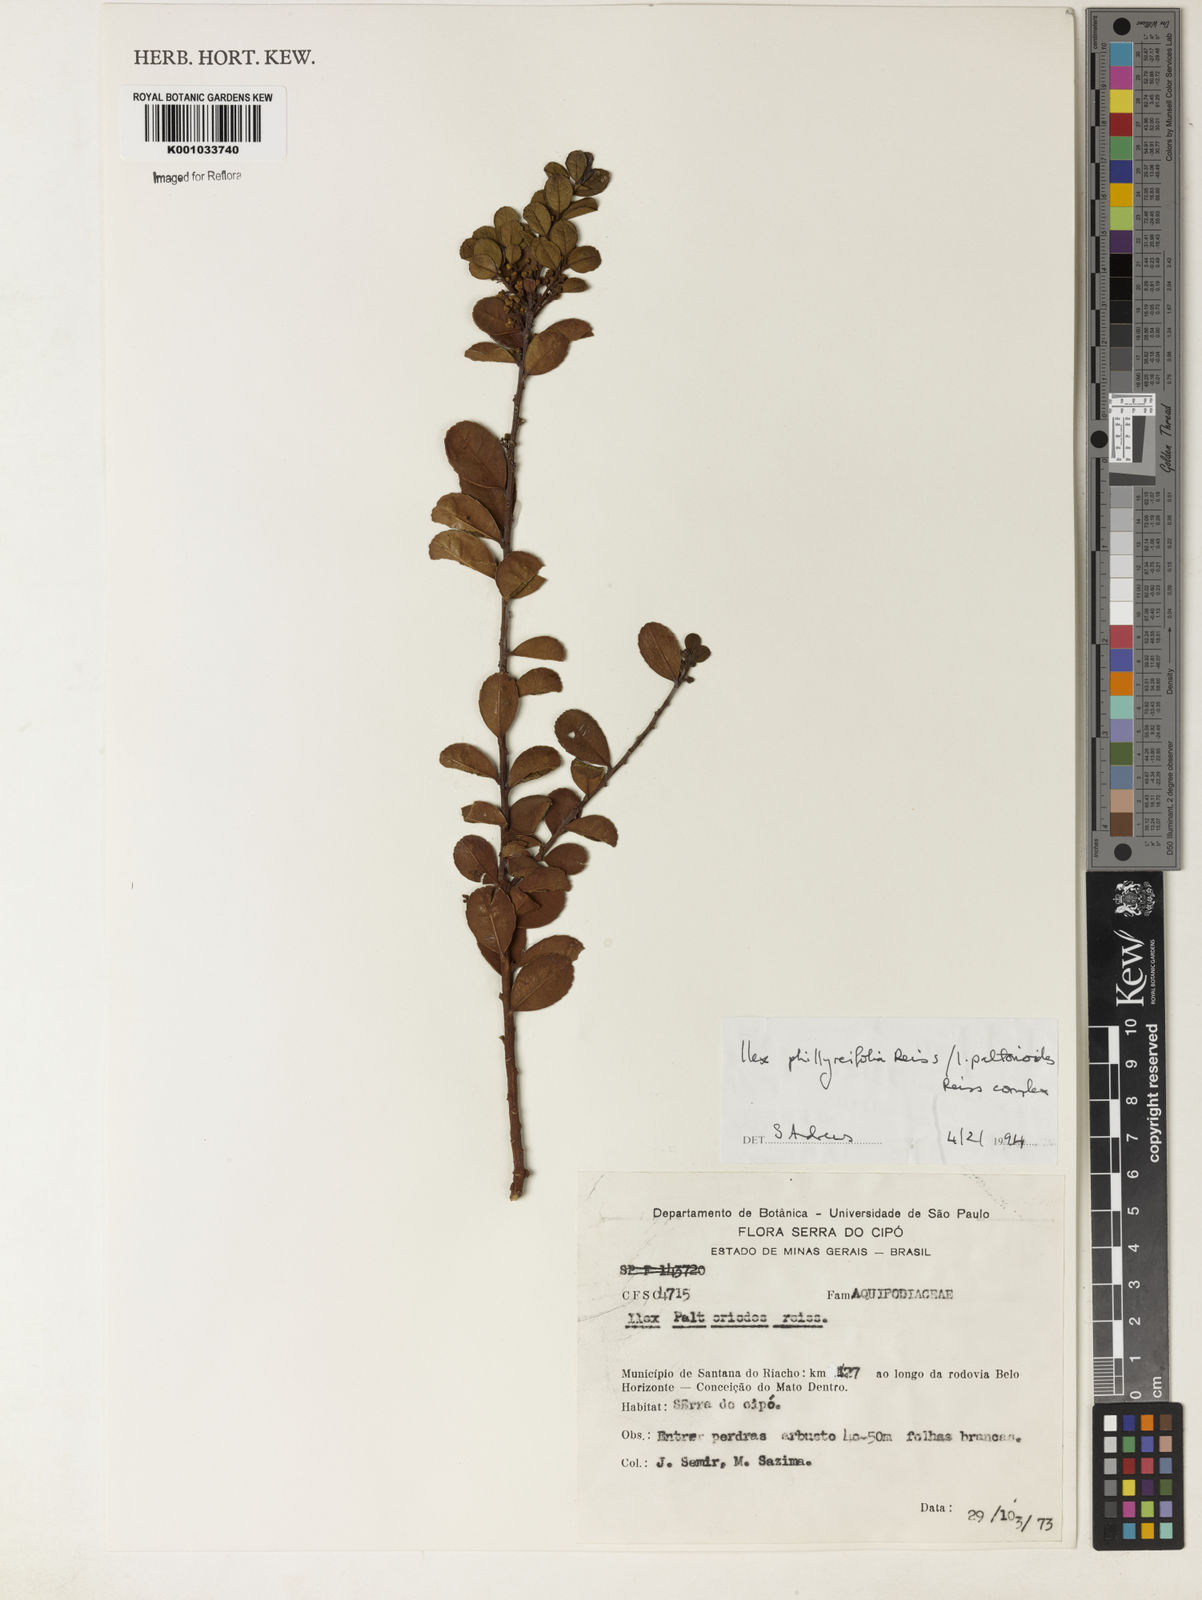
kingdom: Plantae
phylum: Tracheophyta
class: Magnoliopsida
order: Aquifoliales
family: Aquifoliaceae
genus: Ilex
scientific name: Ilex
